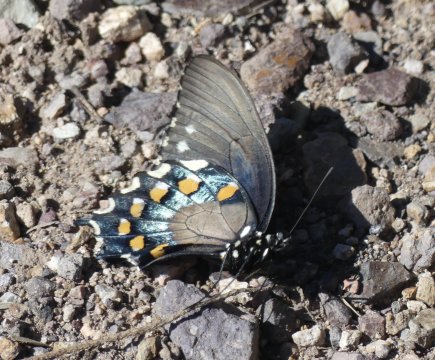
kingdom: Animalia
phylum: Arthropoda
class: Insecta
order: Lepidoptera
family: Papilionidae
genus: Battus
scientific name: Battus philenor
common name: Pipevine Swallowtail
